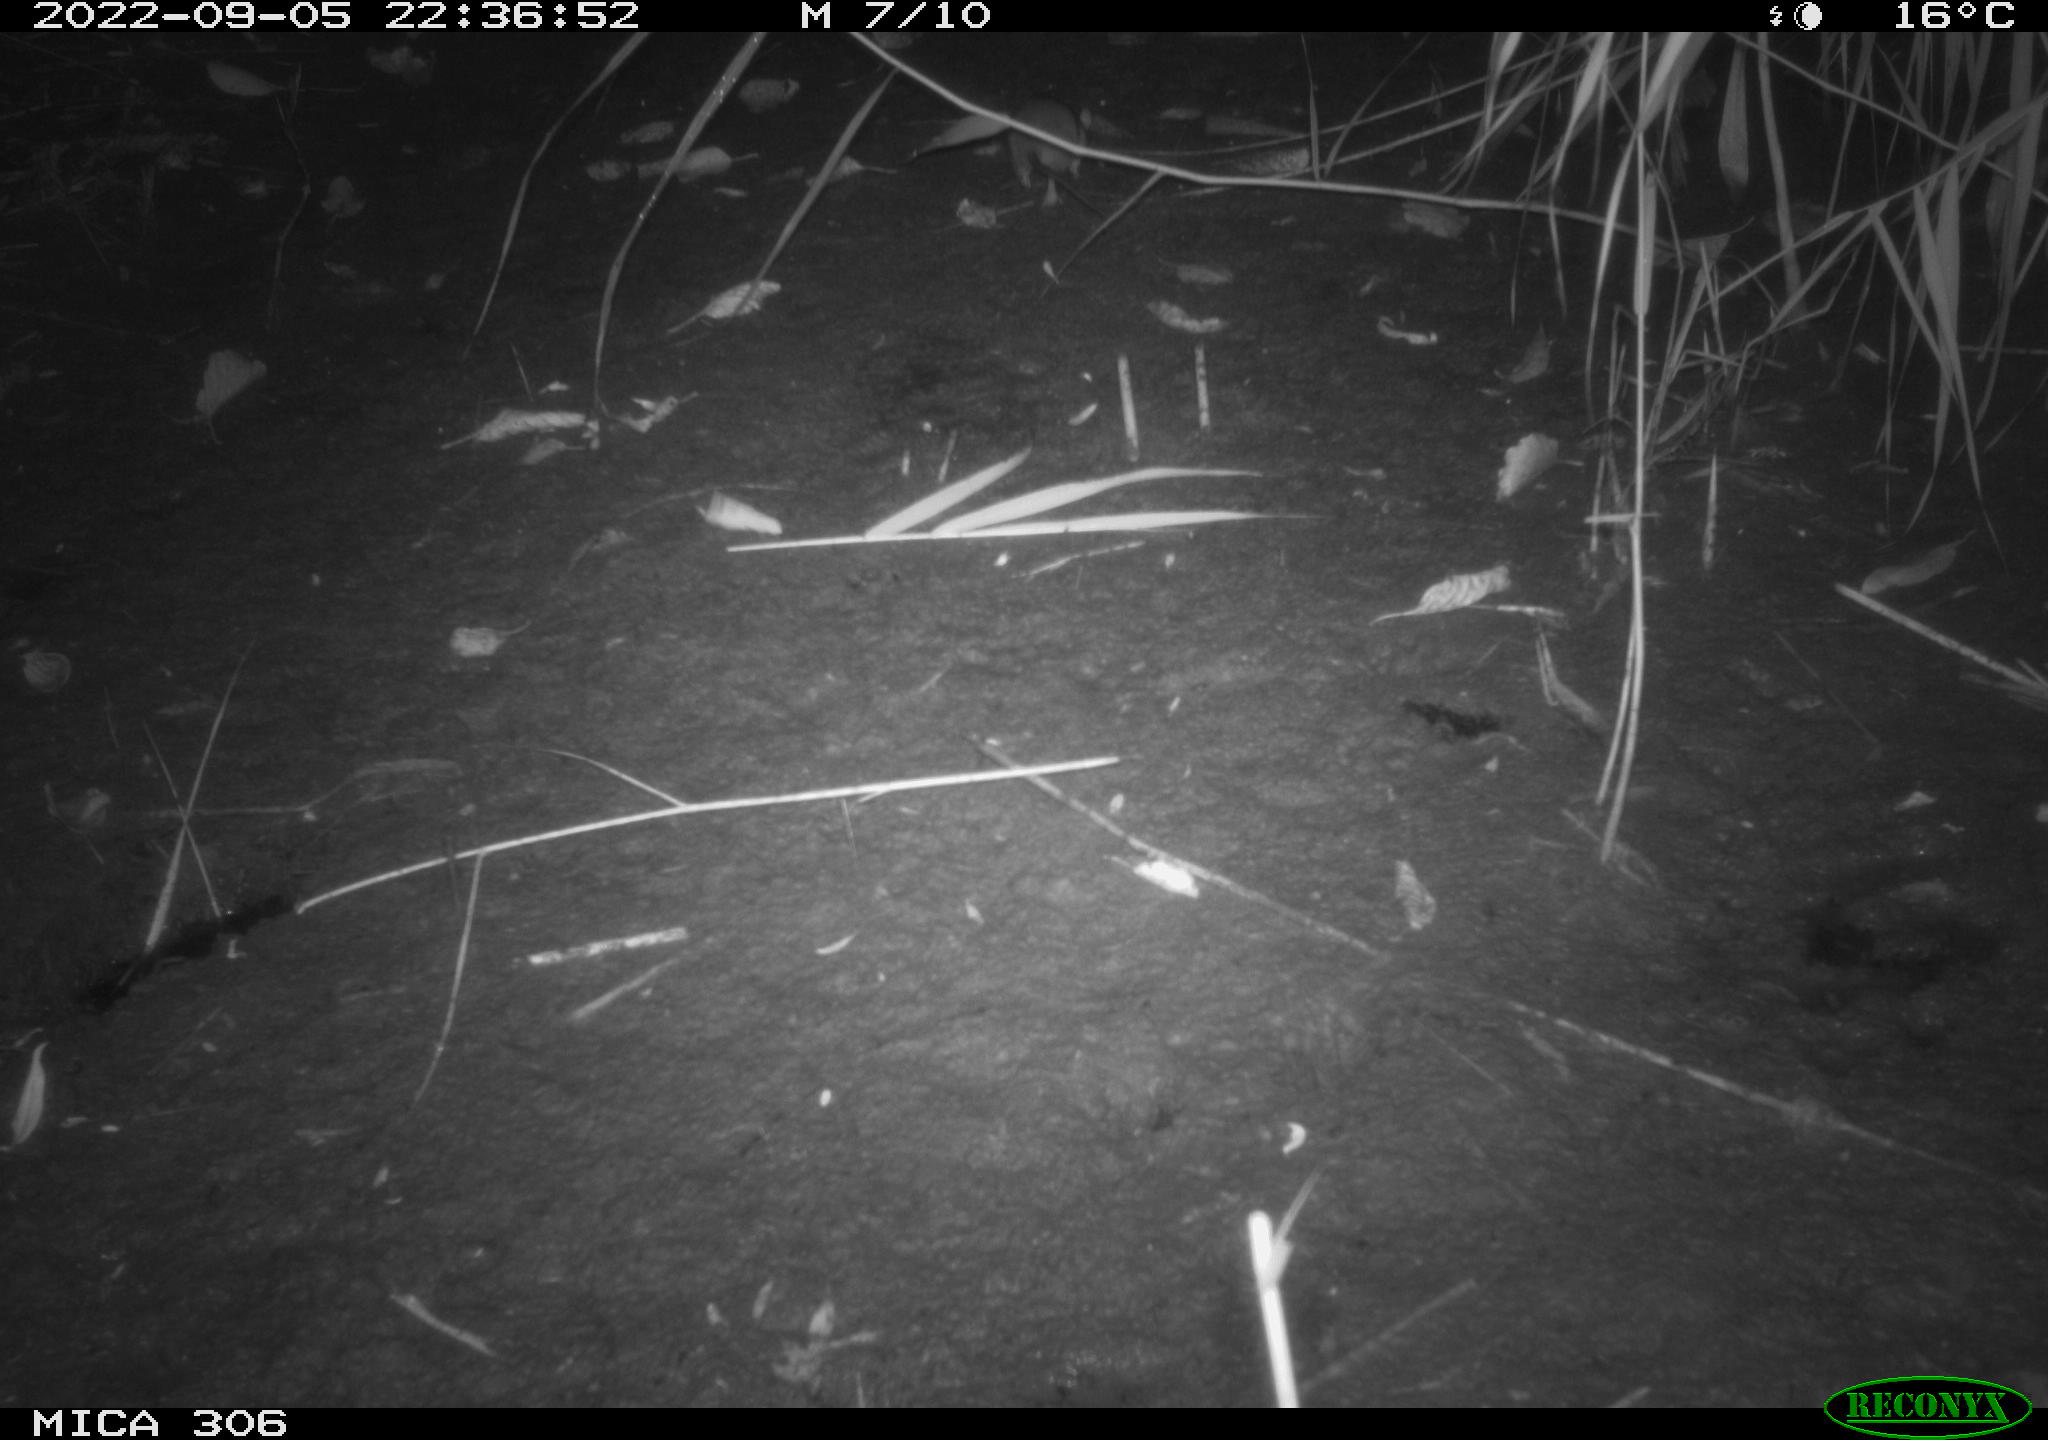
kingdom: Animalia
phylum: Chordata
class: Mammalia
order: Rodentia
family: Muridae
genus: Rattus
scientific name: Rattus norvegicus
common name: Brown rat
